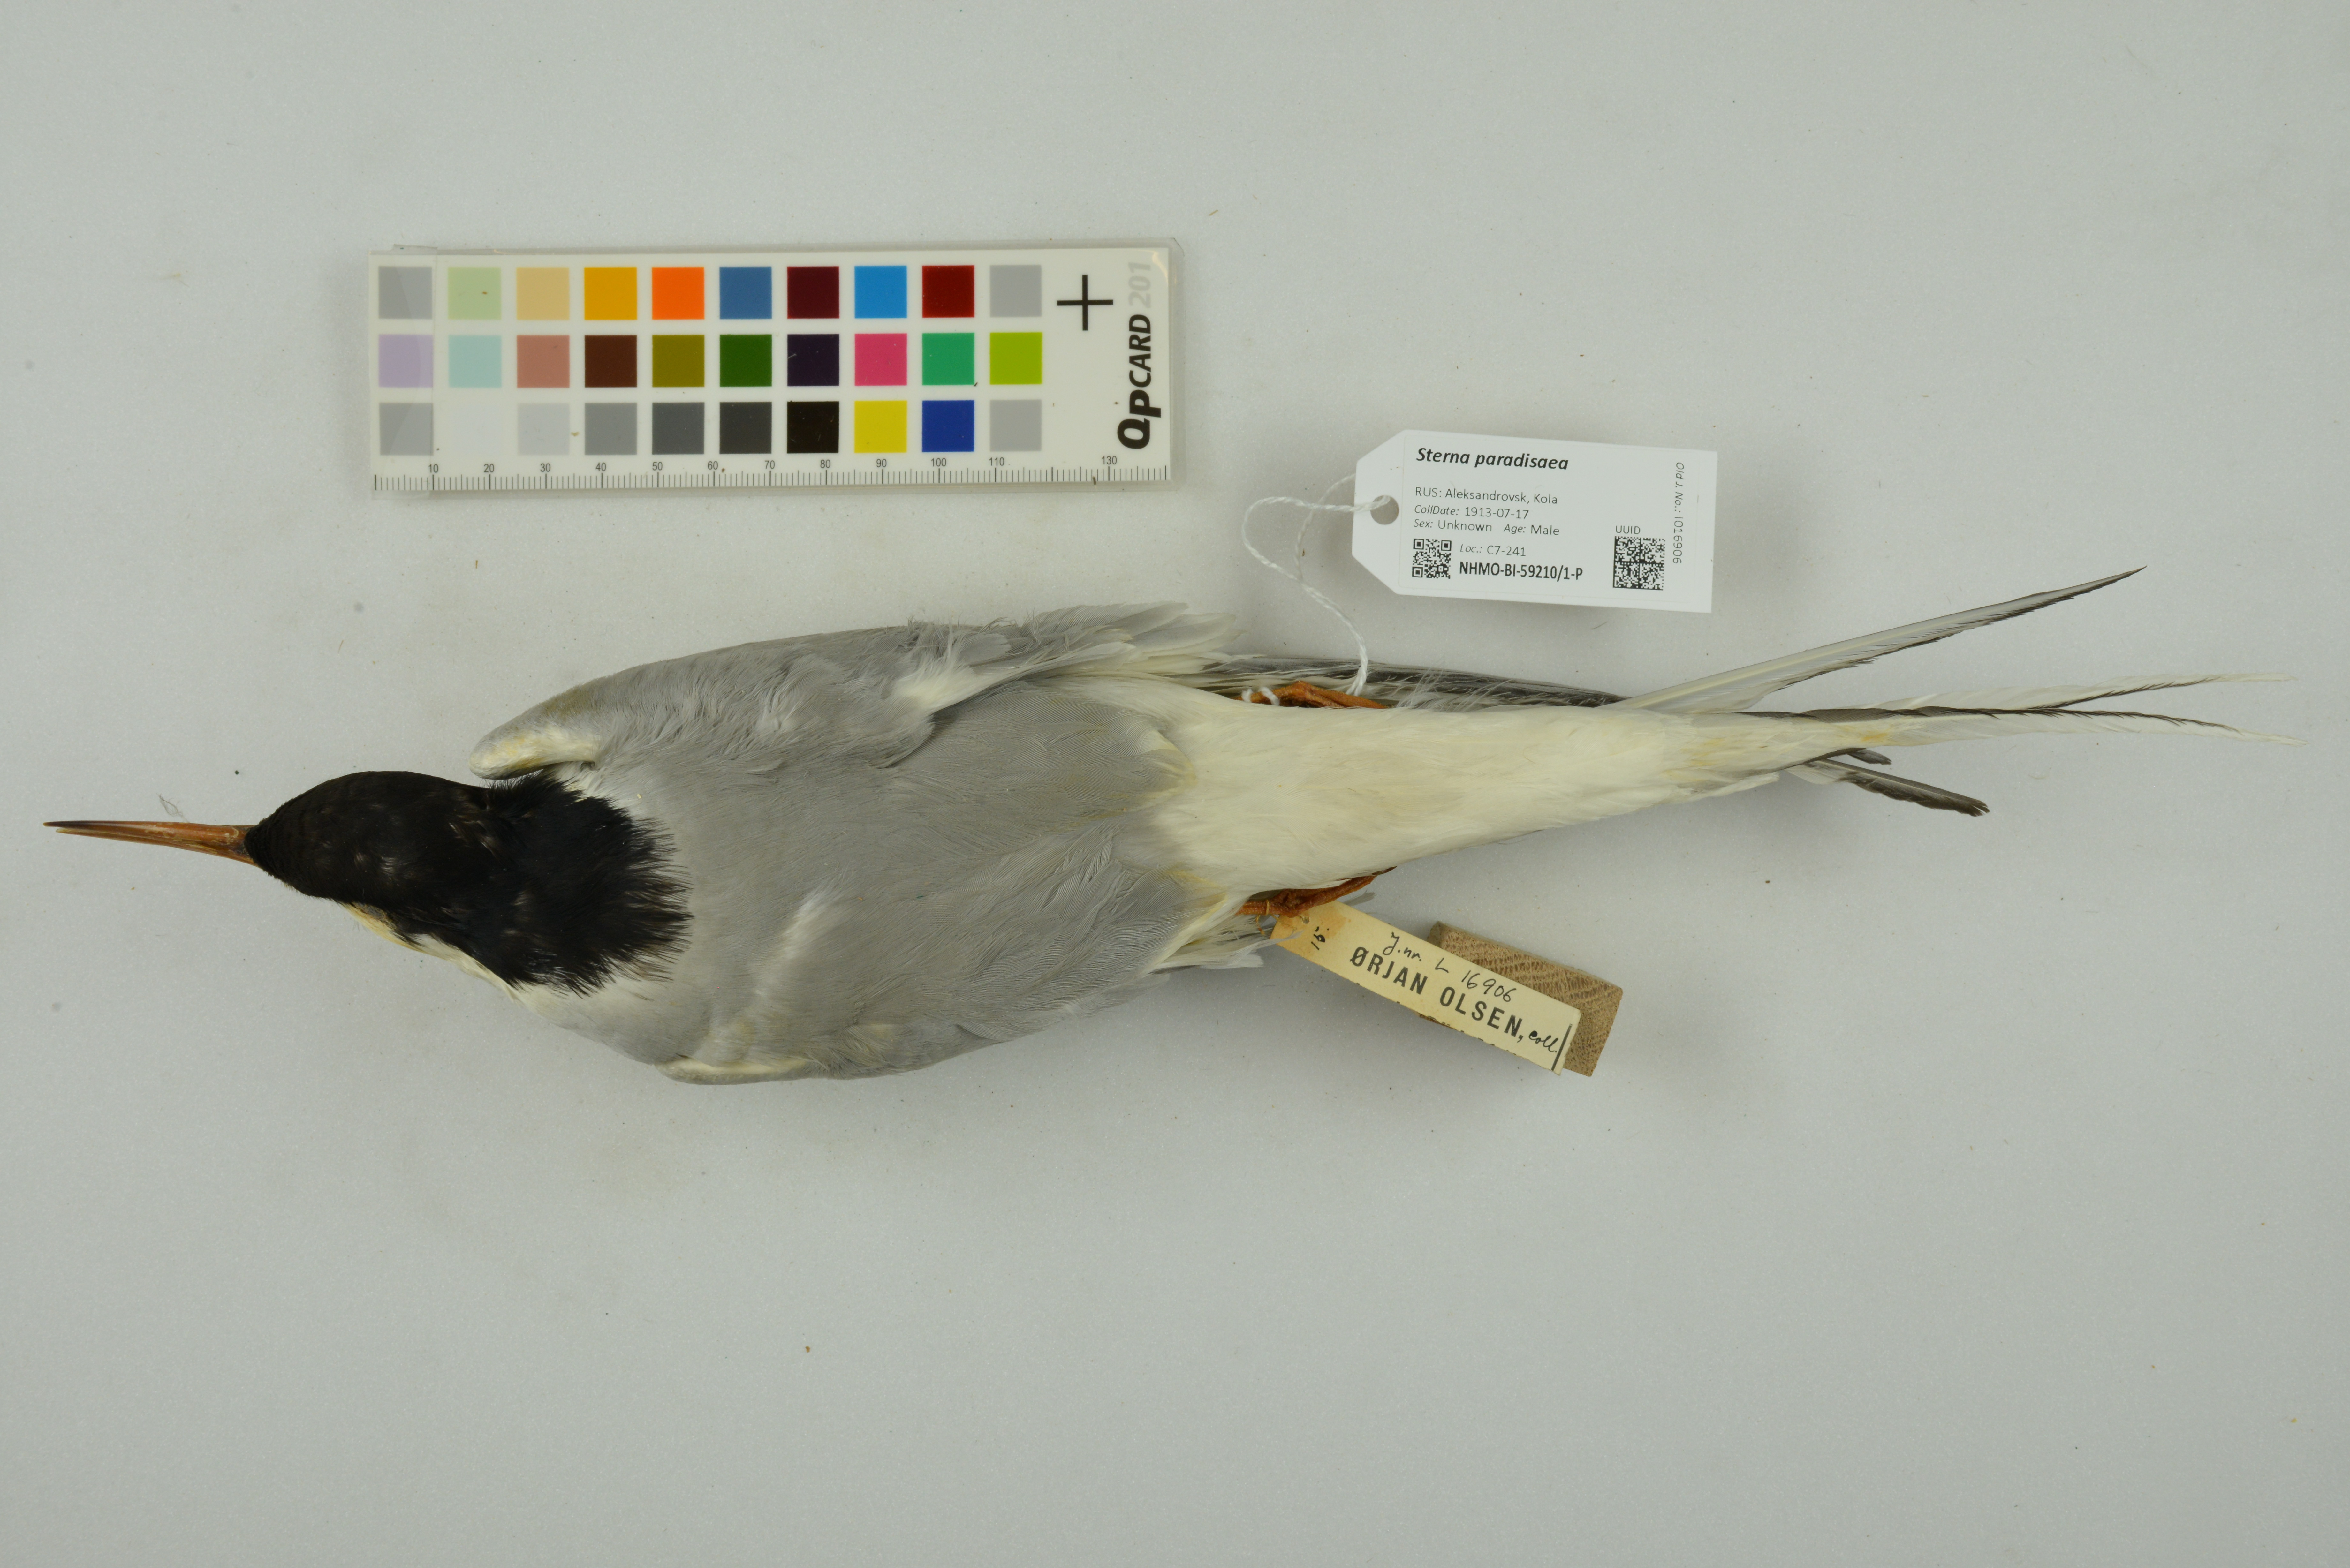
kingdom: Animalia
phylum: Chordata
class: Aves
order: Charadriiformes
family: Laridae
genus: Sterna
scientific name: Sterna paradisaea
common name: Arctic tern
